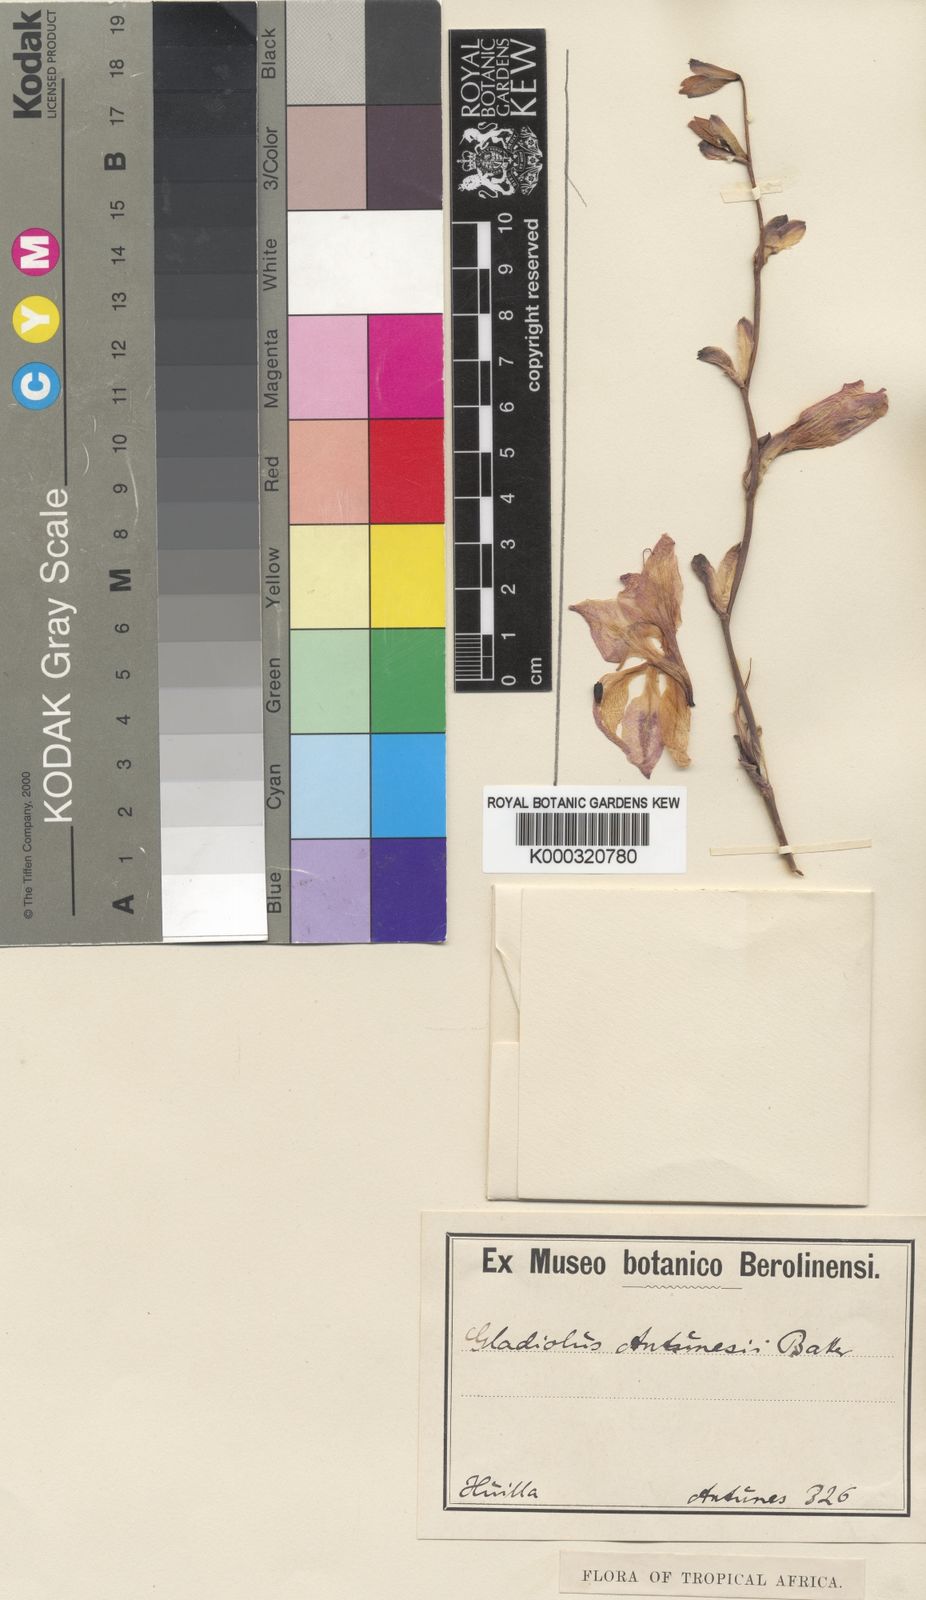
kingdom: Plantae
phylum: Tracheophyta
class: Liliopsida
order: Asparagales
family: Iridaceae
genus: Gladiolus
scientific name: Gladiolus laxiflorus
